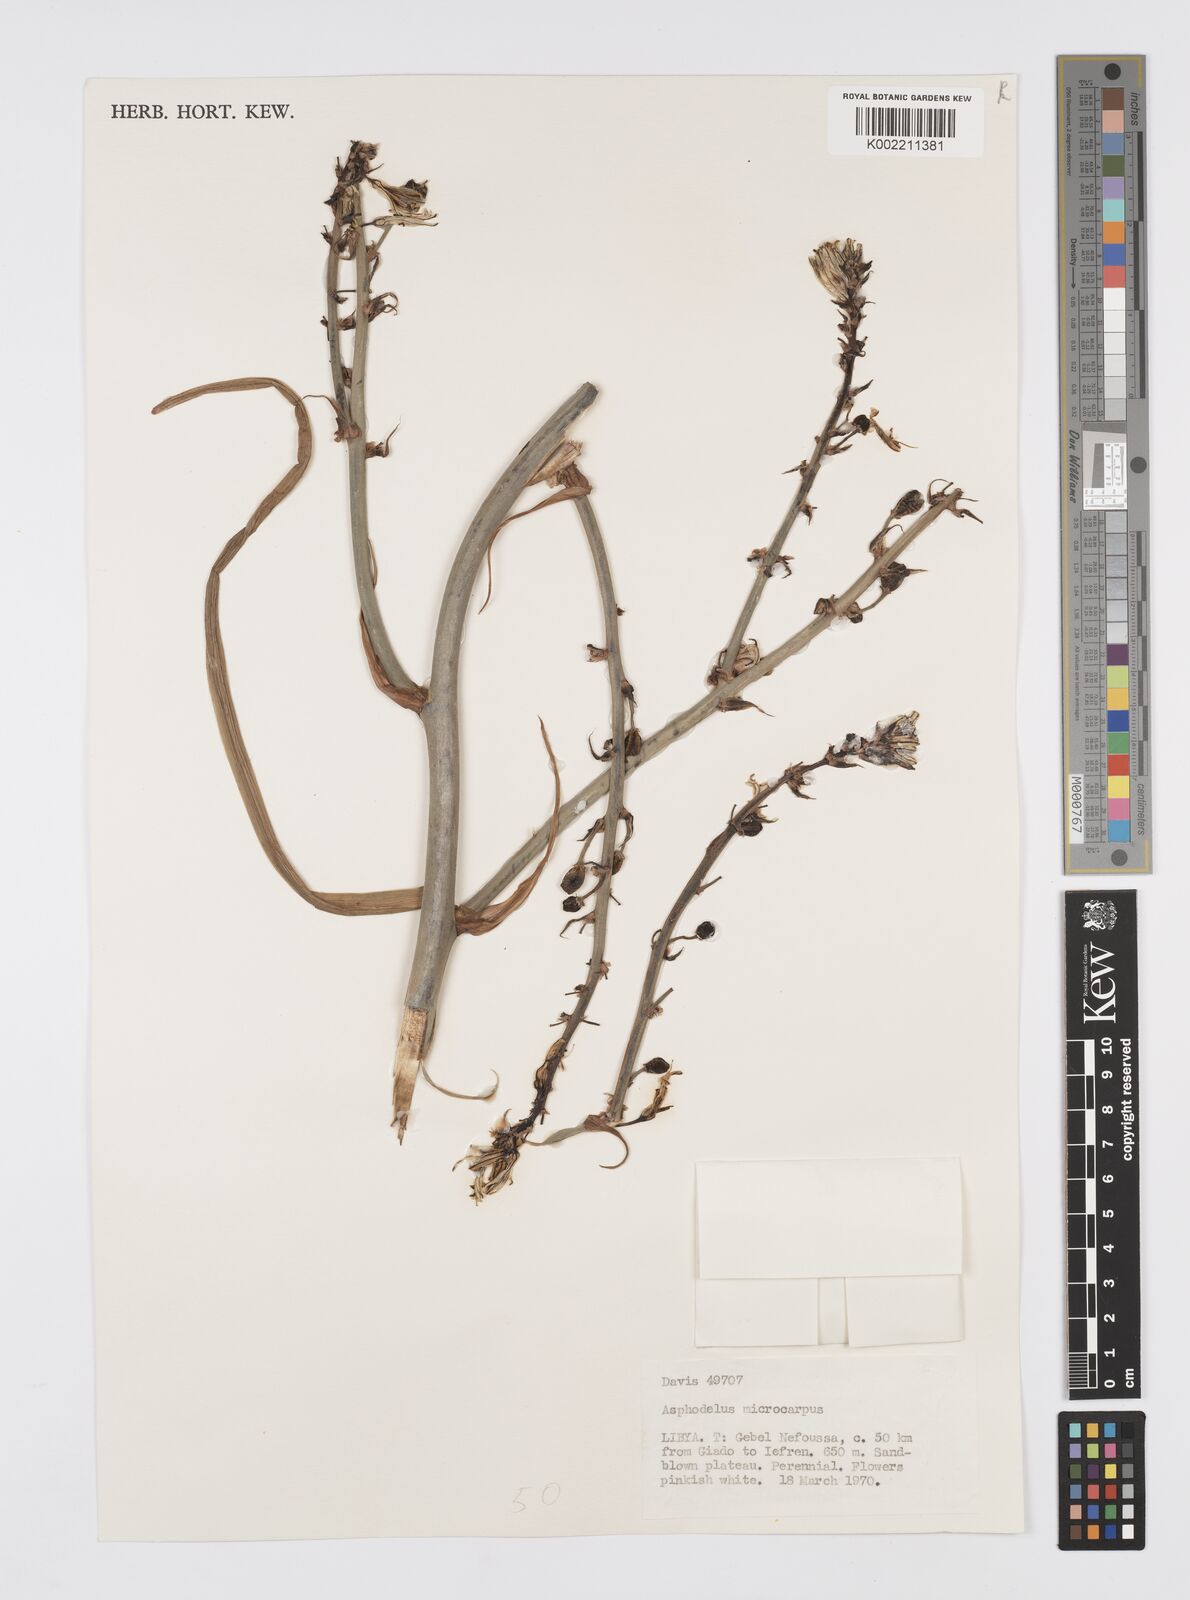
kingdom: Plantae
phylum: Tracheophyta
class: Liliopsida
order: Asparagales
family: Asphodelaceae
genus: Asphodelus
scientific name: Asphodelus ramosus
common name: Silverrod
